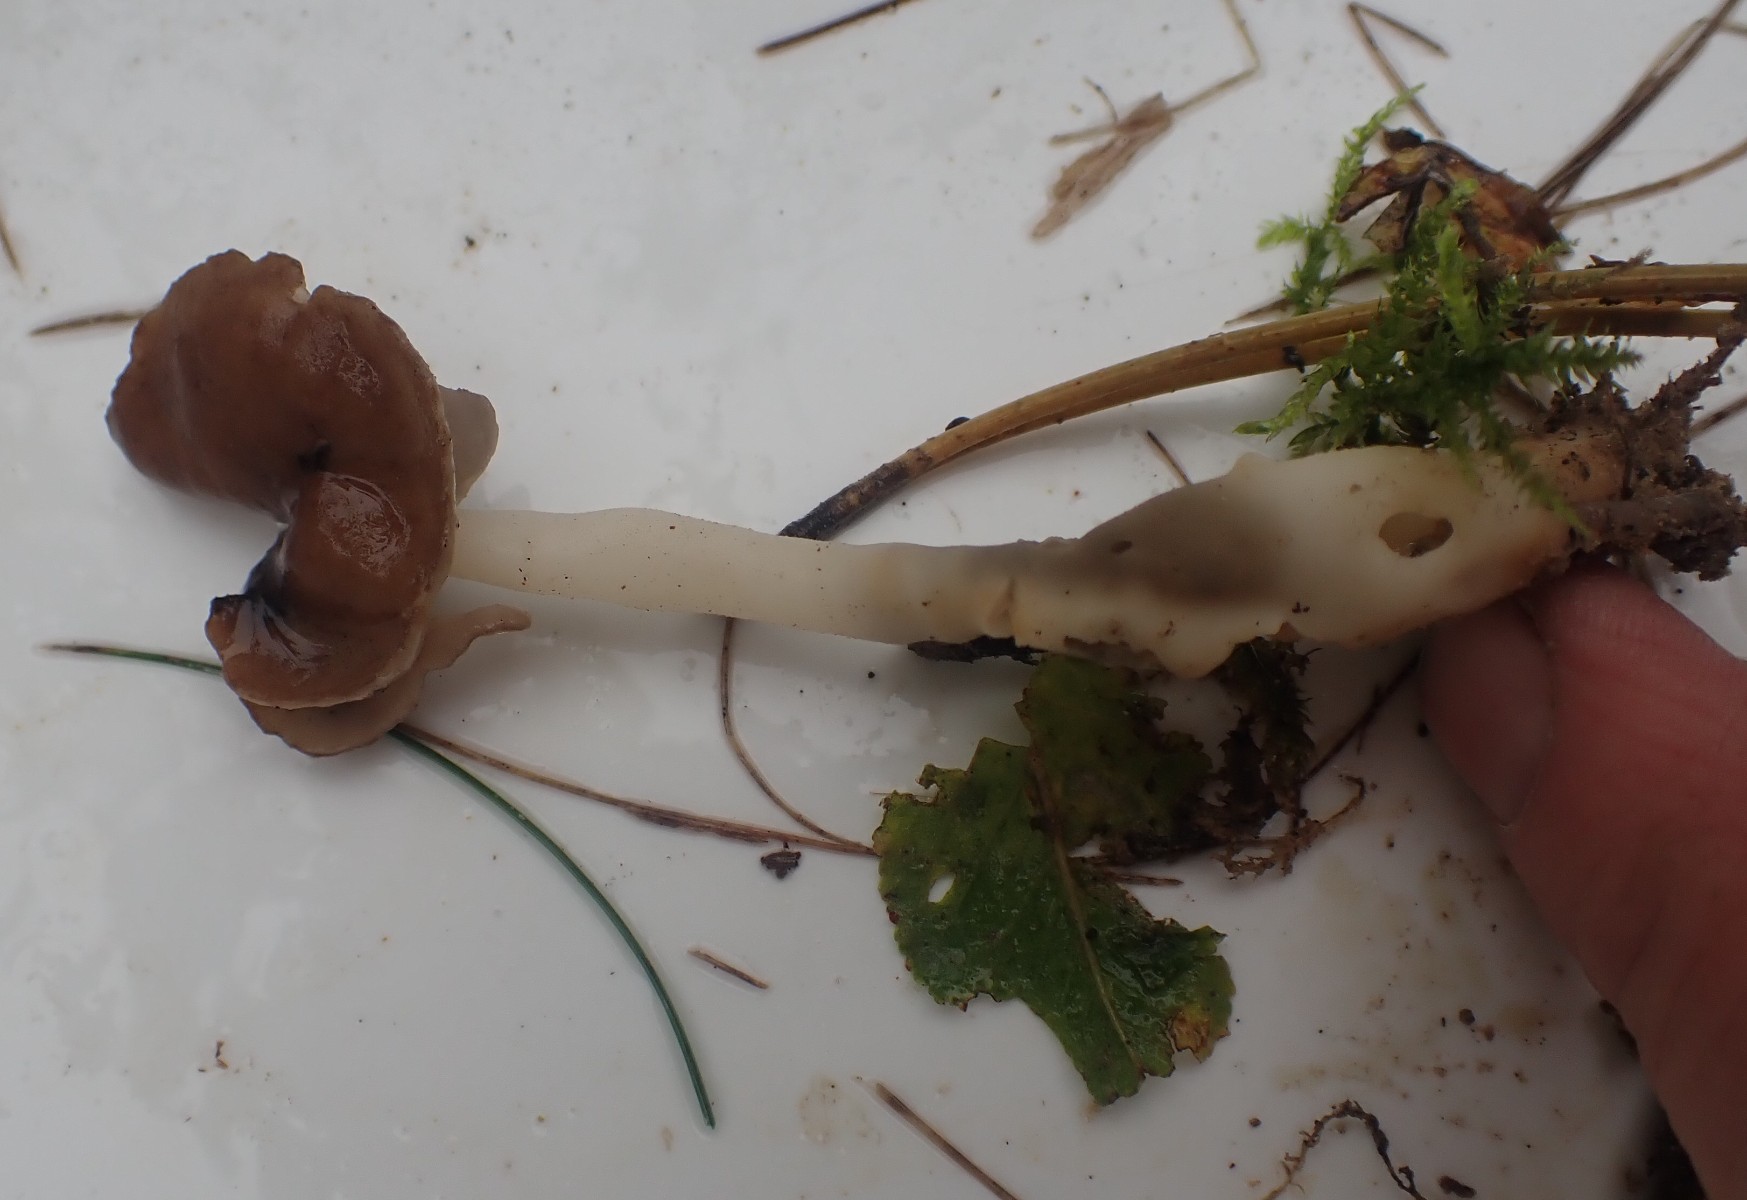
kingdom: Fungi
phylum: Ascomycota
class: Pezizomycetes
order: Pezizales
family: Helvellaceae
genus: Helvella
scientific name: Helvella
